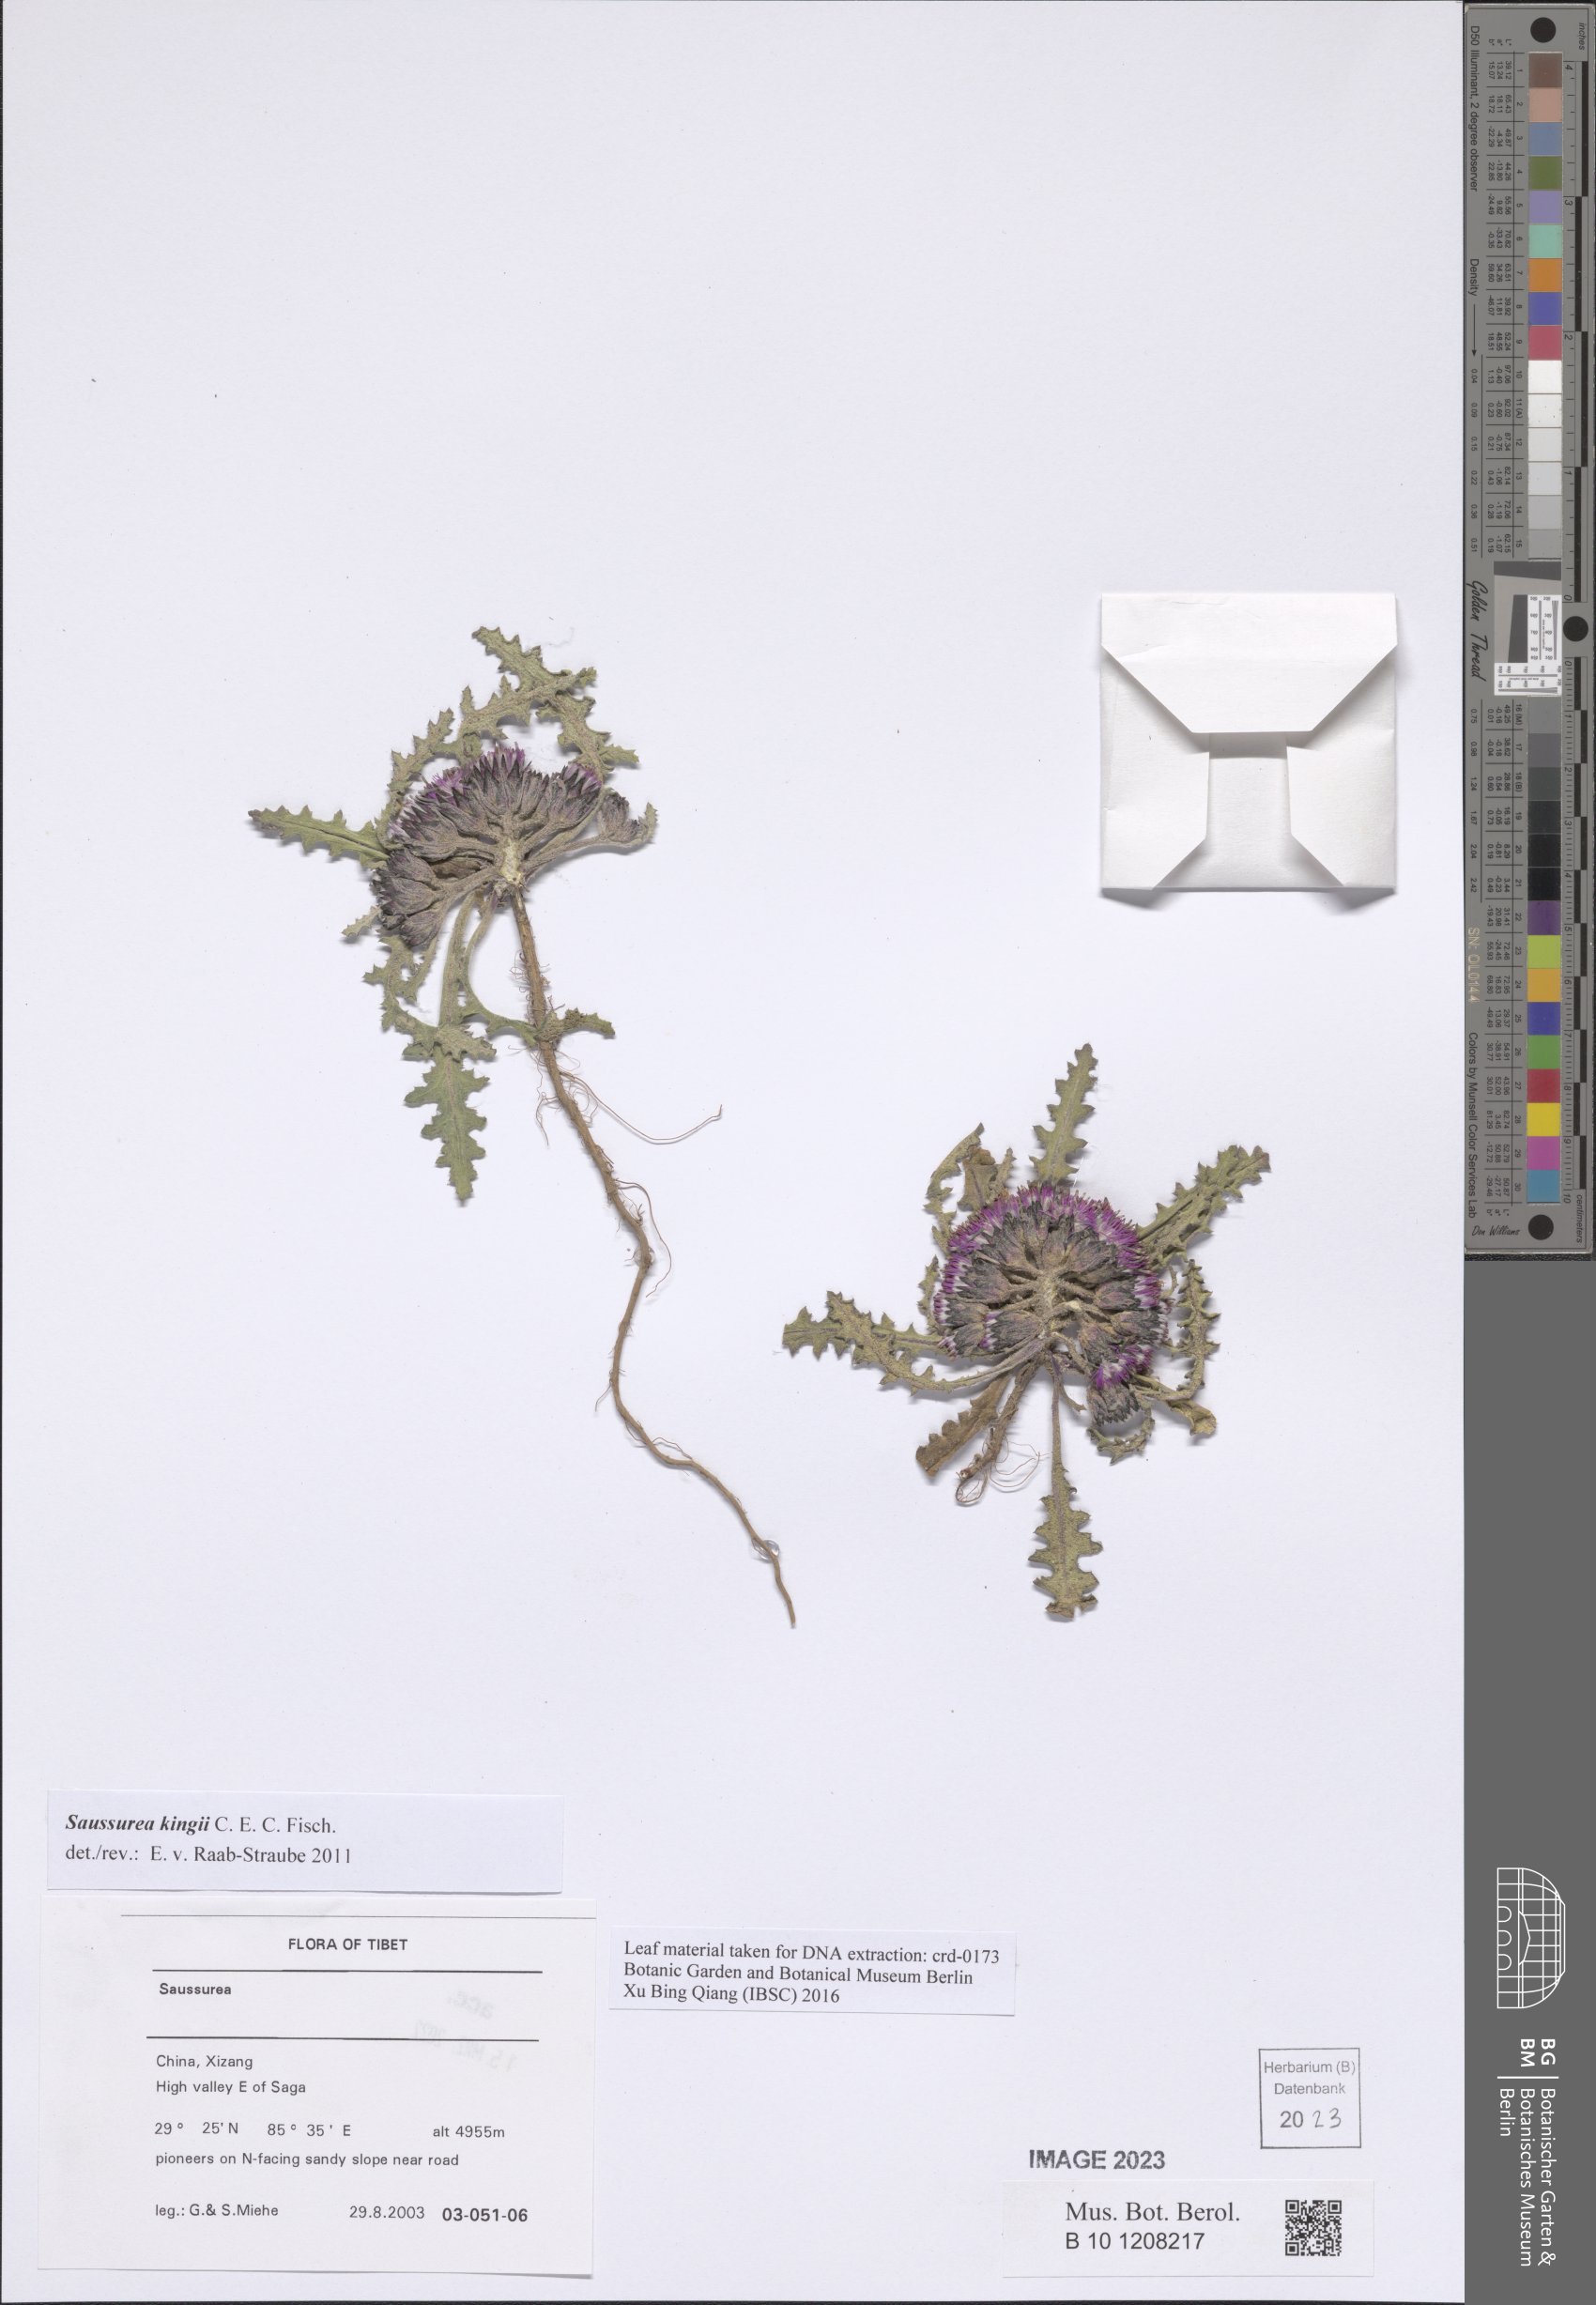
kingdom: Plantae
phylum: Tracheophyta
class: Magnoliopsida
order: Asterales
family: Asteraceae
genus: Saussurea
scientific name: Saussurea kingii
